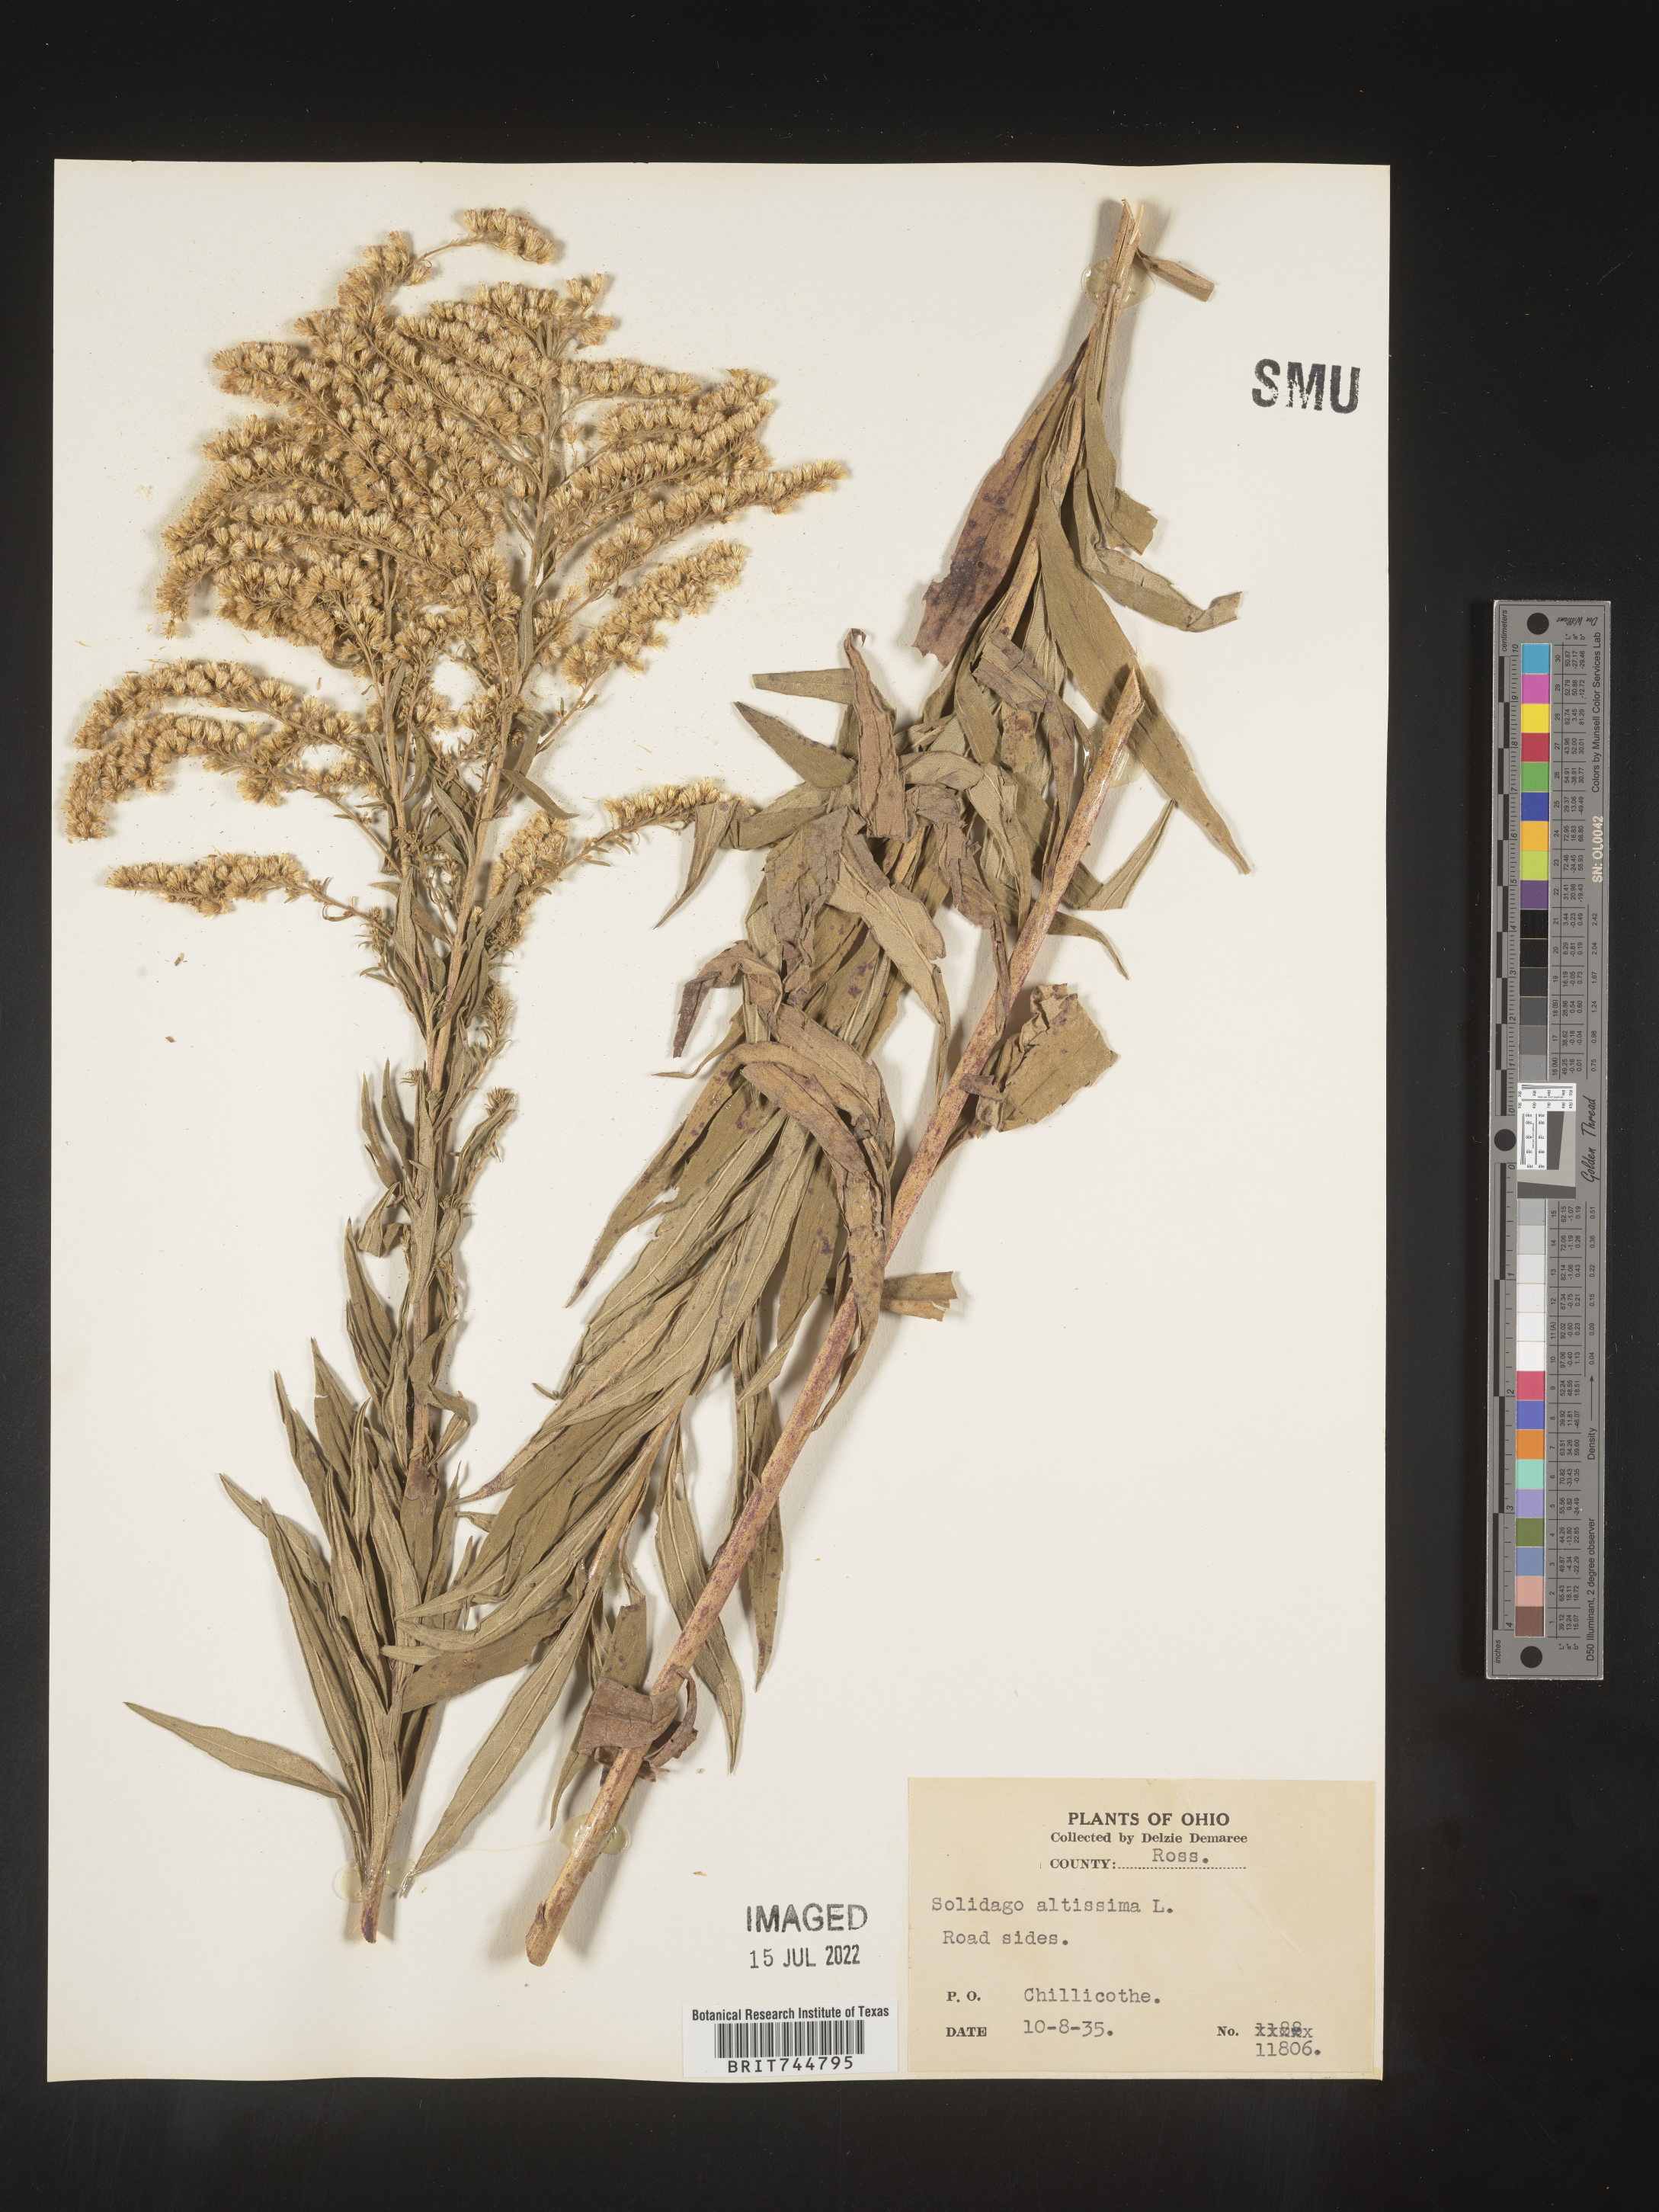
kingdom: Plantae
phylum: Tracheophyta
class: Magnoliopsida
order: Asterales
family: Asteraceae
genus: Solidago
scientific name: Solidago canadensis
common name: Canada goldenrod
